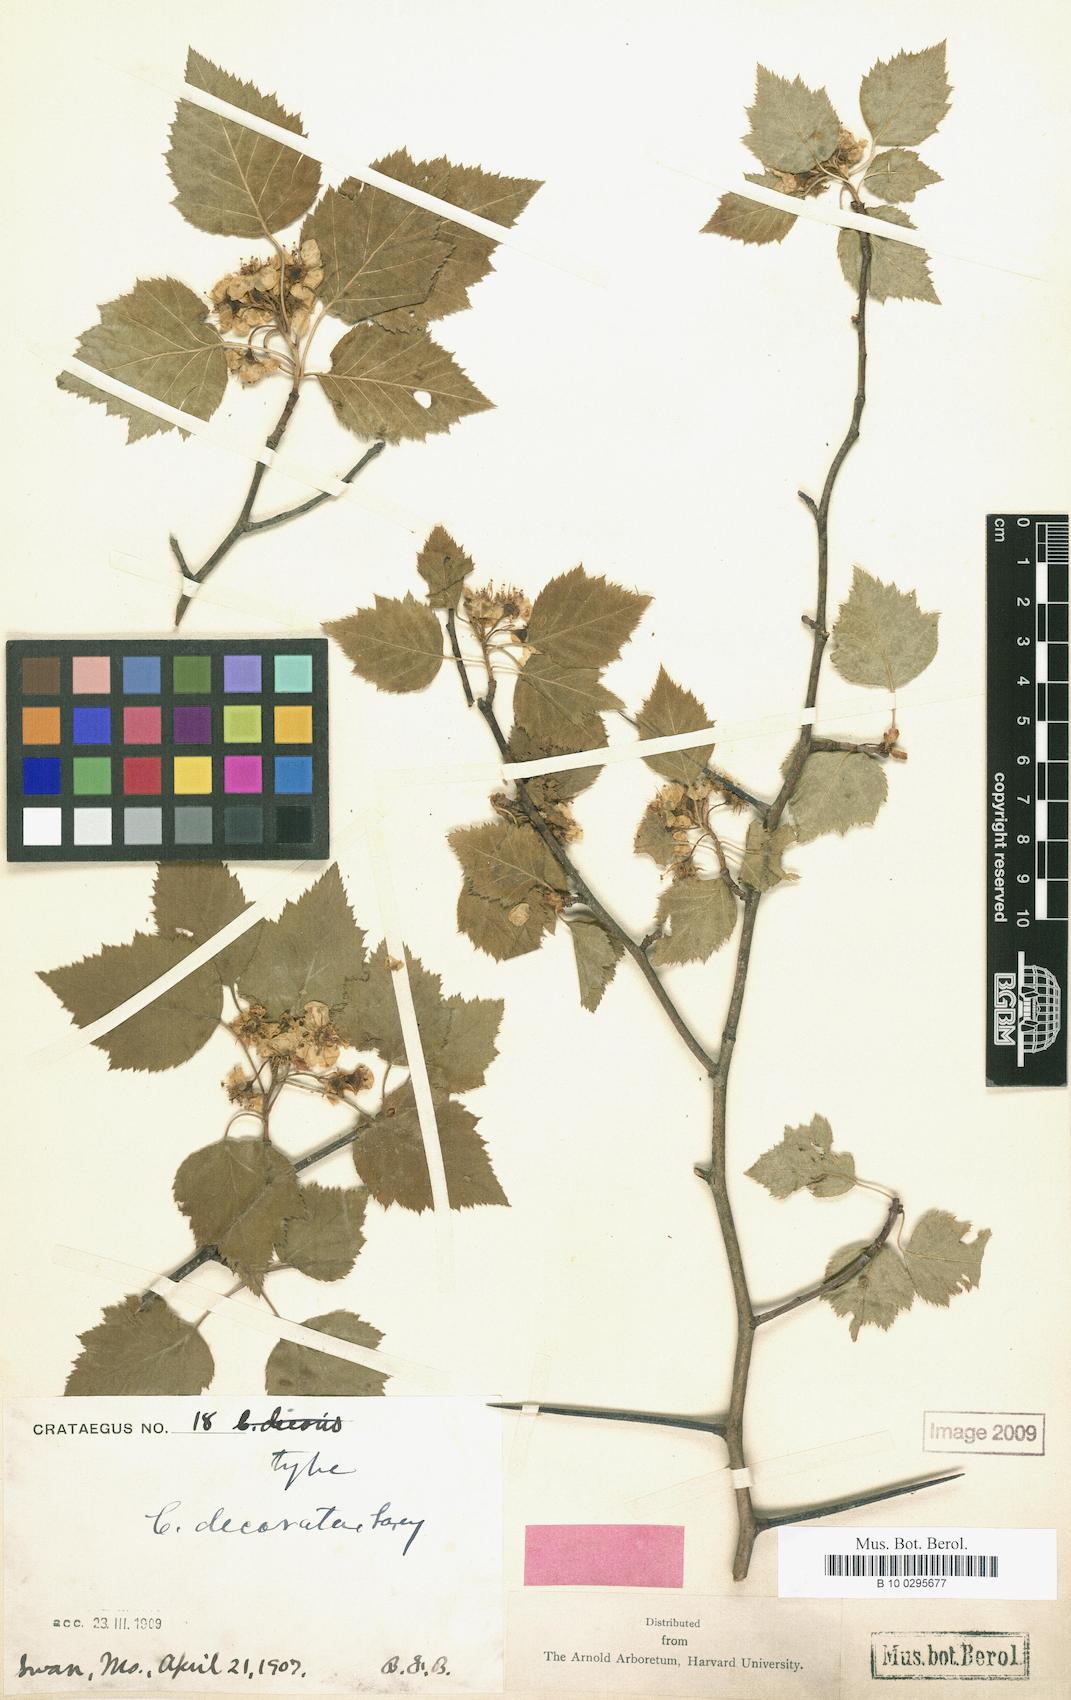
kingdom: Plantae
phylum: Tracheophyta
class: Magnoliopsida
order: Rosales
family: Rosaceae
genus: Crataegus
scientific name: Crataegus decorata
